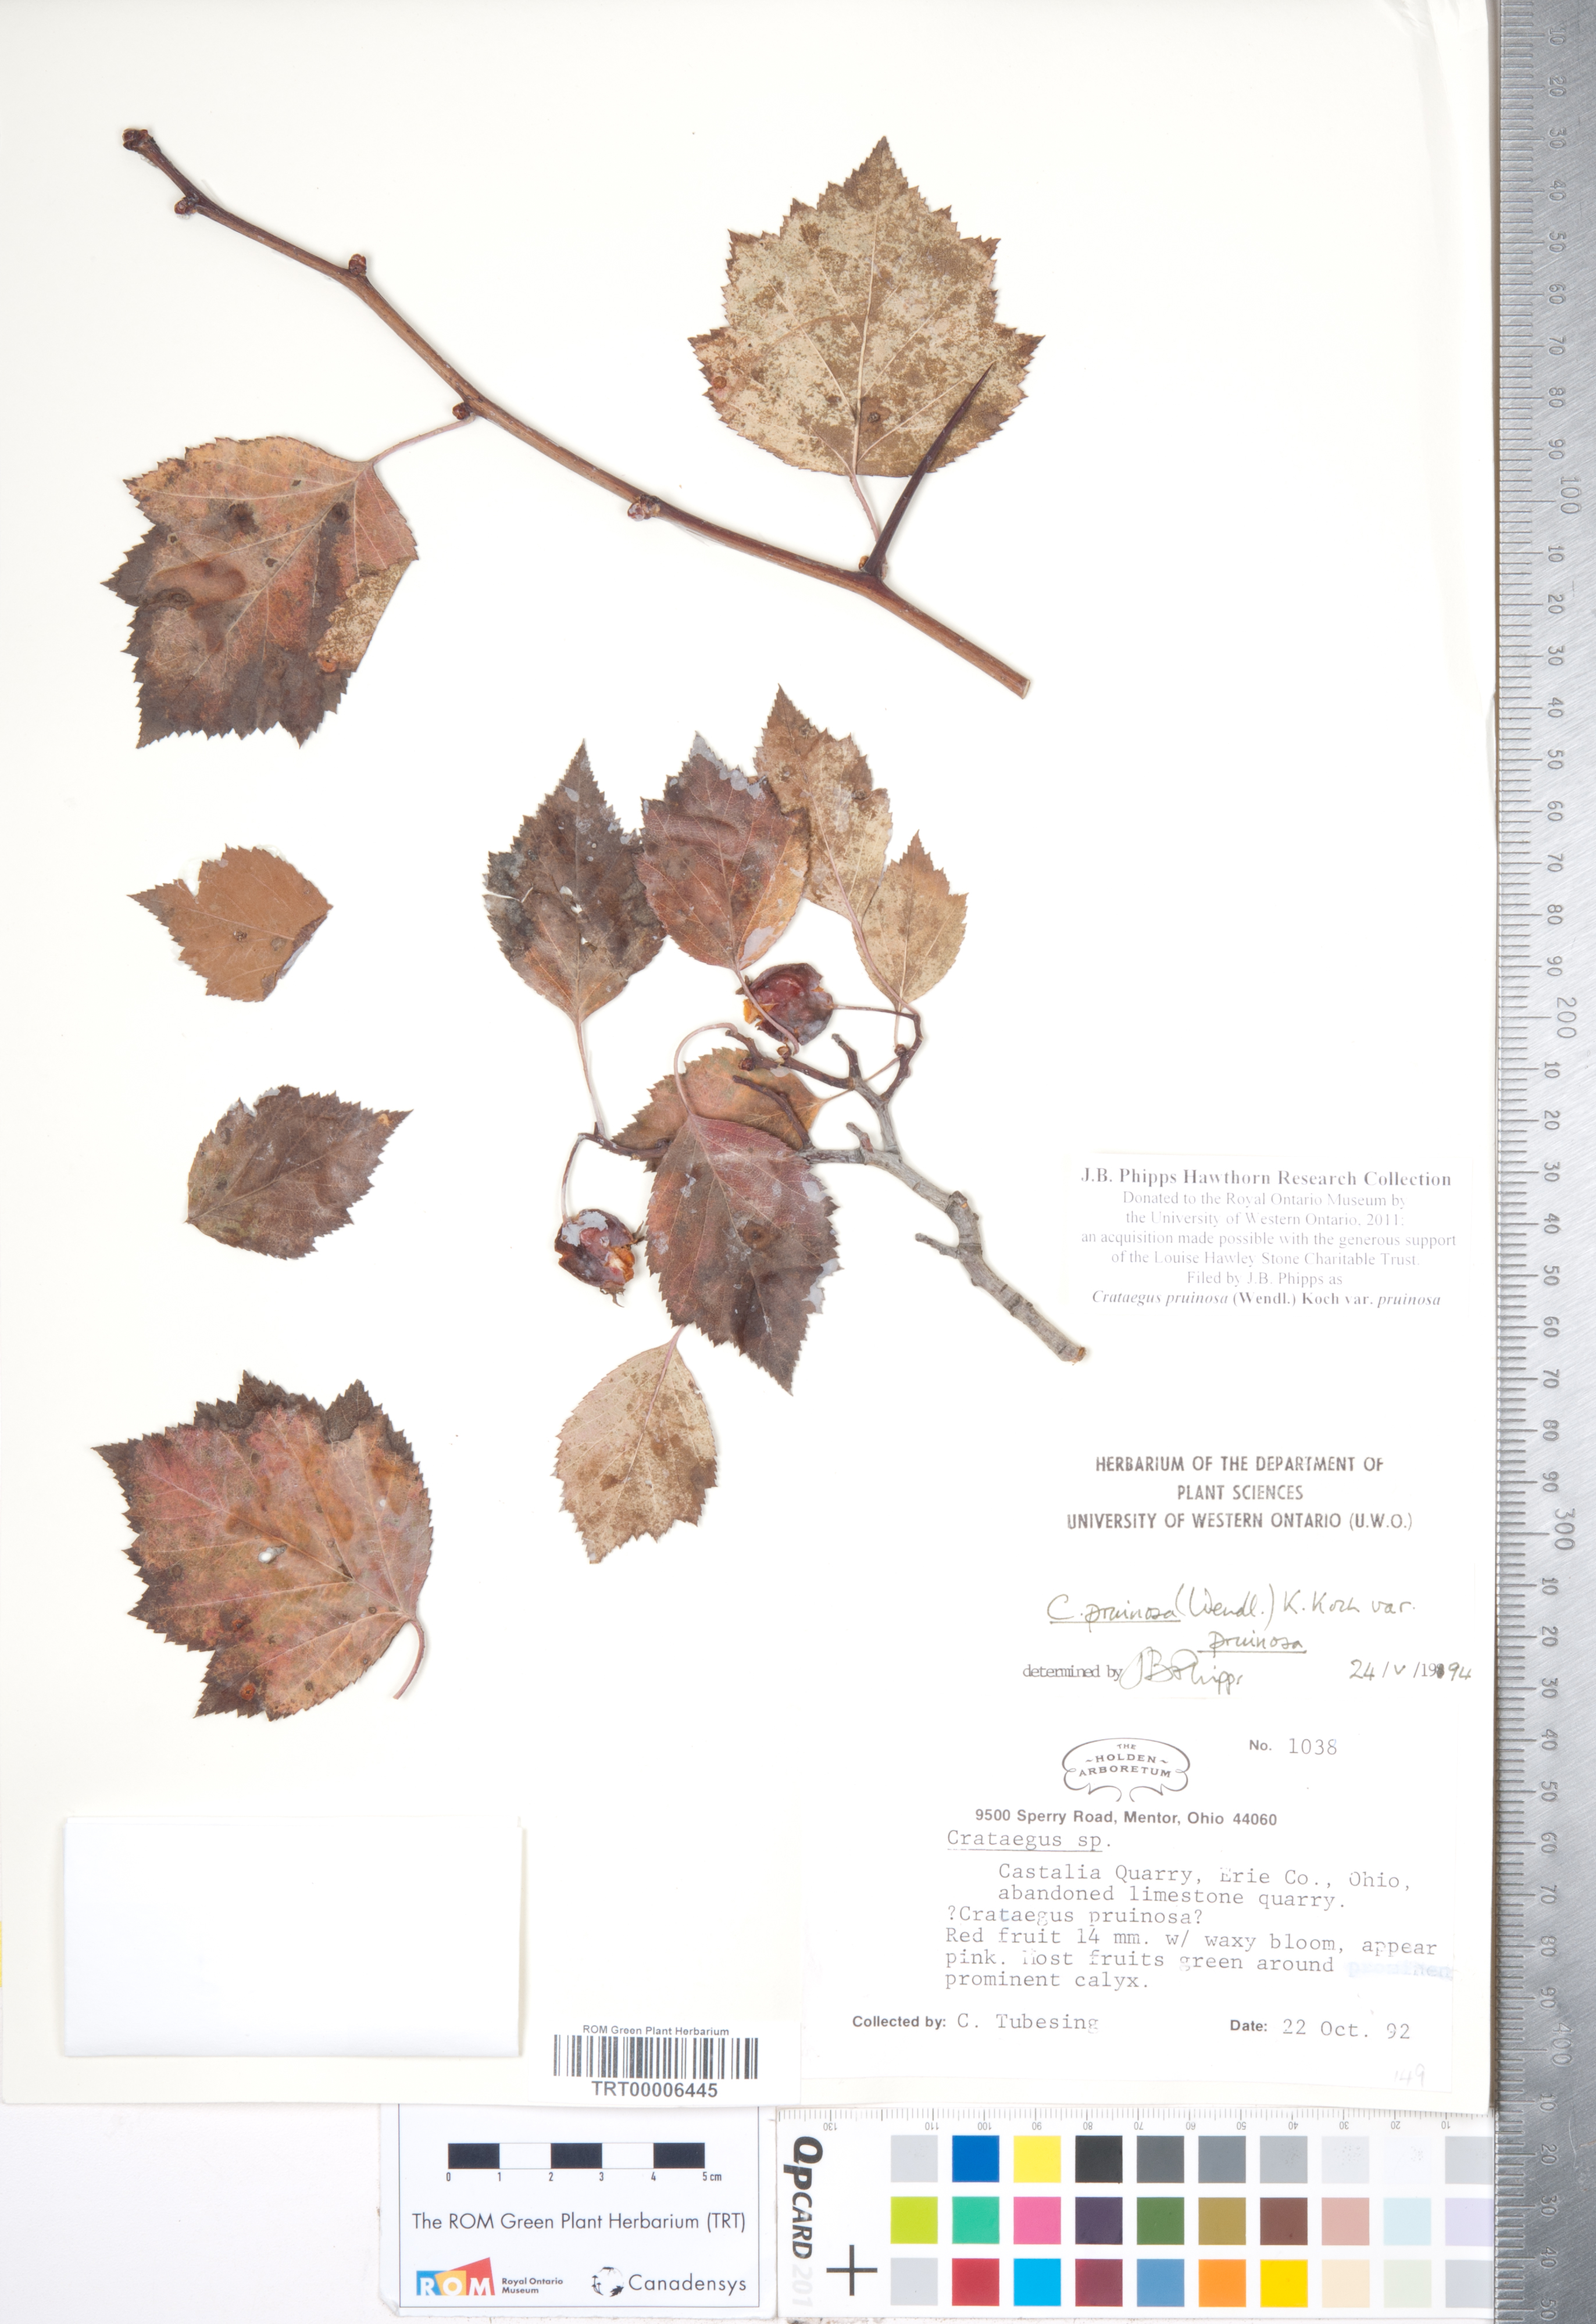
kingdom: Plantae
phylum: Tracheophyta
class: Magnoliopsida
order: Rosales
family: Rosaceae
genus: Crataegus
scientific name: Crataegus pruinosa
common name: Waxy-fruit hawthorn
